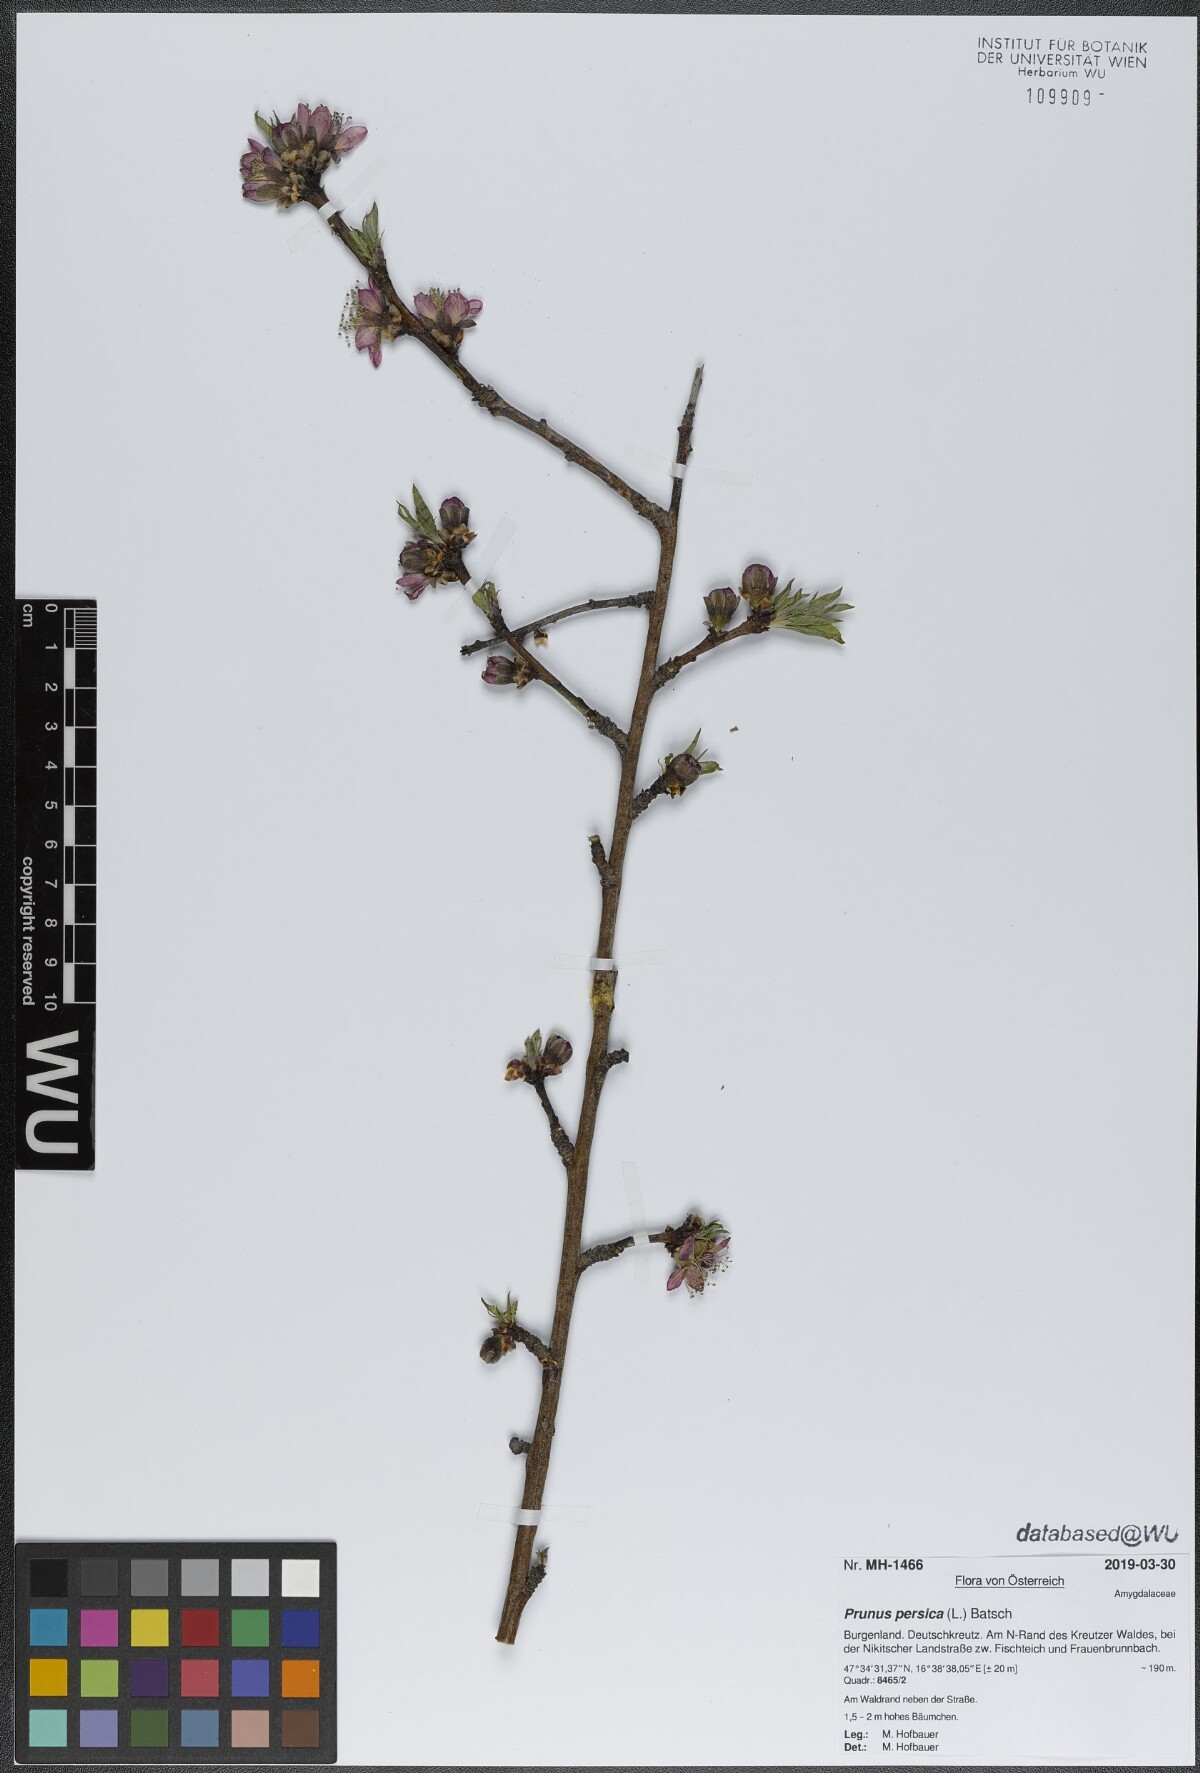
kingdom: Plantae
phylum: Tracheophyta
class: Magnoliopsida
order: Rosales
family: Rosaceae
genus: Prunus
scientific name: Prunus persica
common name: Peach
